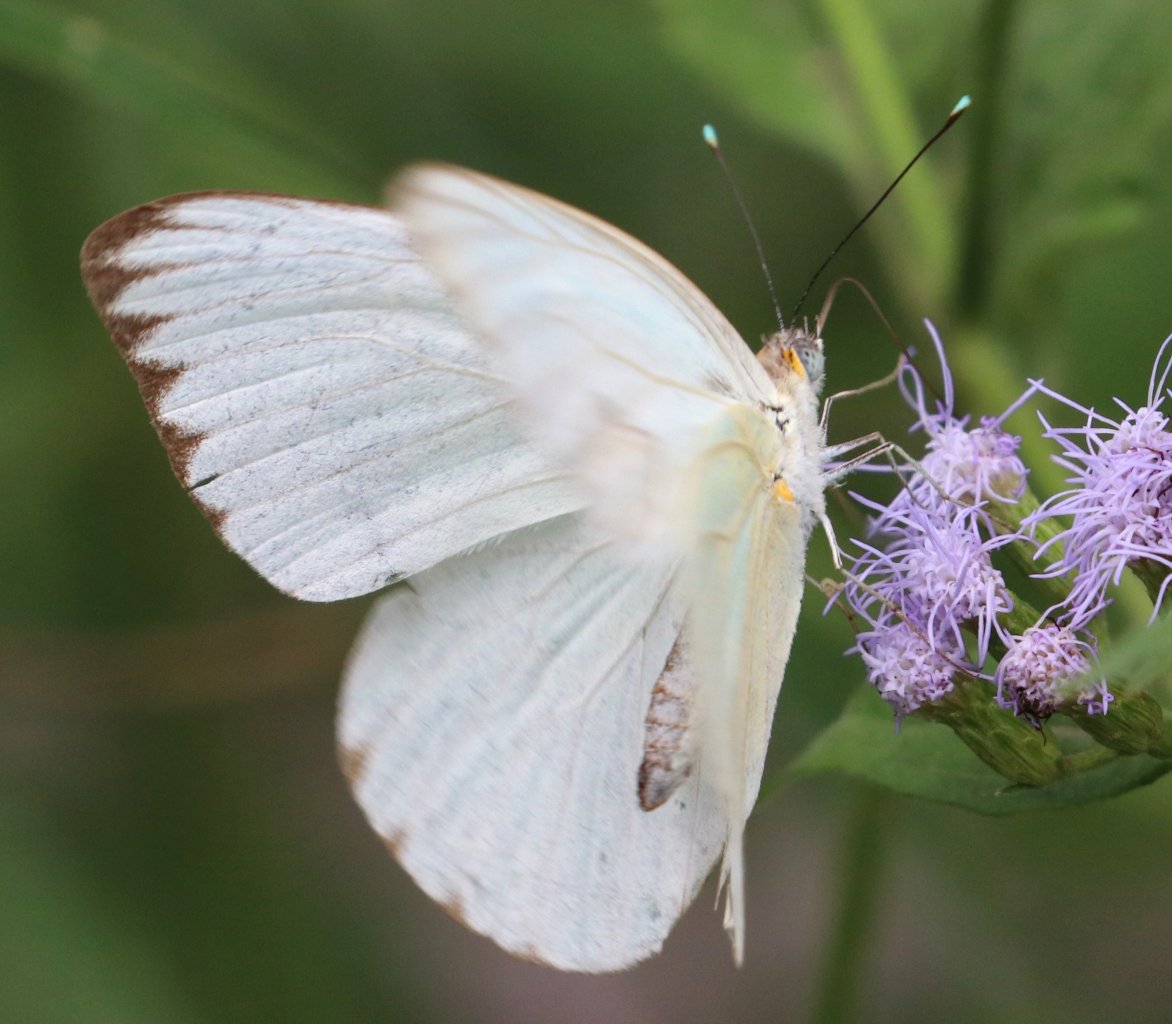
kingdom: Animalia
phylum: Arthropoda
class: Insecta
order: Lepidoptera
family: Pieridae
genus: Ascia
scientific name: Ascia monuste
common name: Great Southern White
